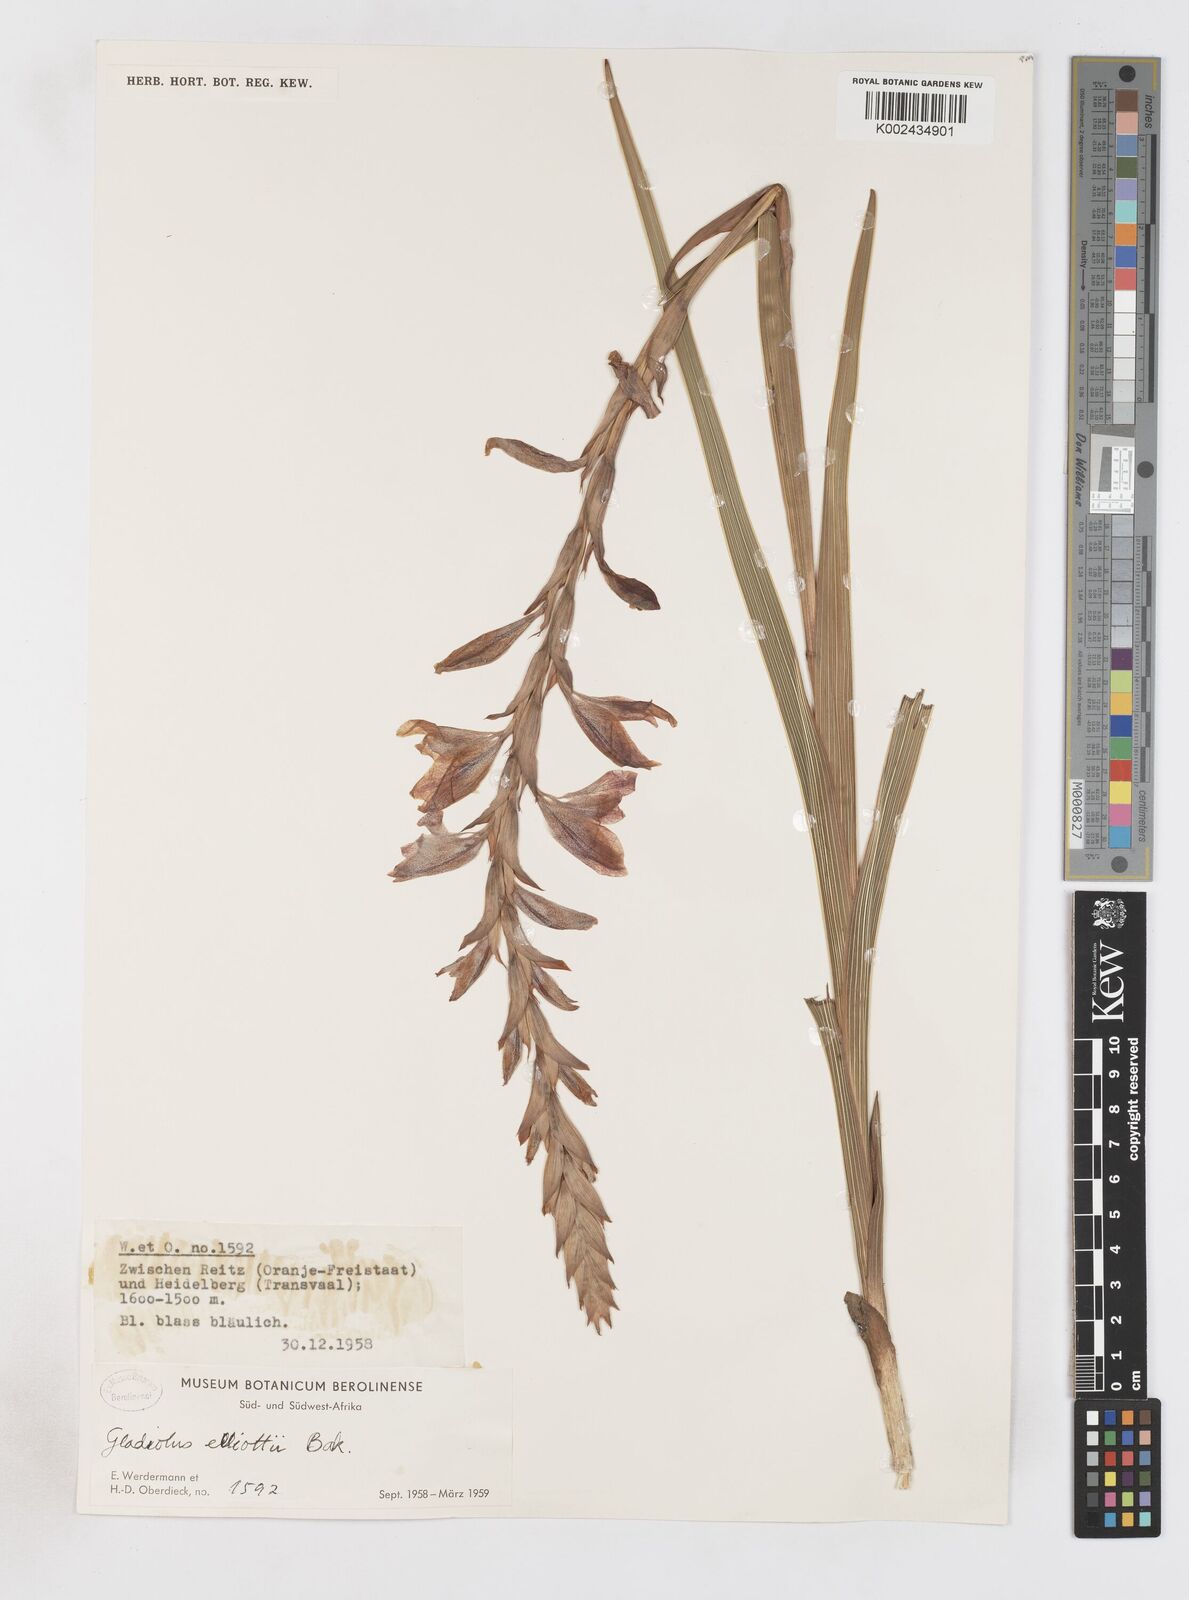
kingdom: Plantae
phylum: Tracheophyta
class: Liliopsida
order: Asparagales
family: Iridaceae
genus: Gladiolus
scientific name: Gladiolus elliotii
